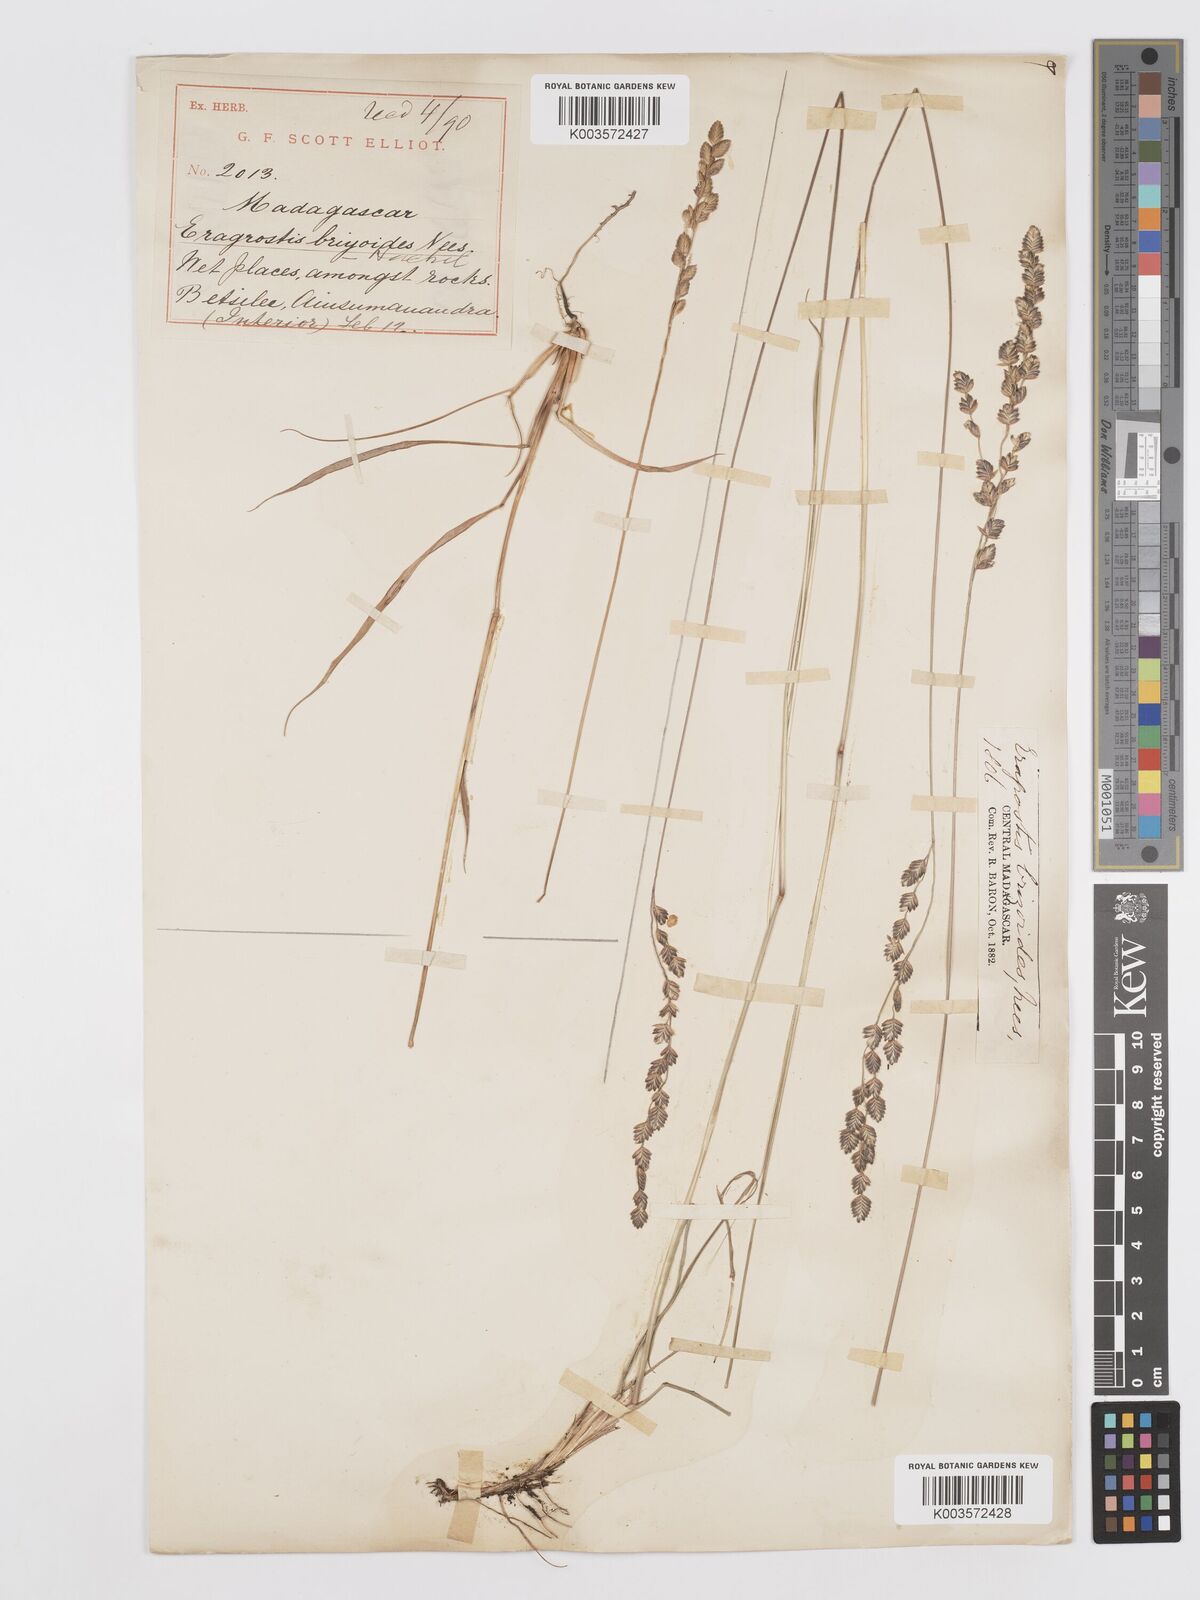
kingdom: Plantae
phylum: Tracheophyta
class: Liliopsida
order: Poales
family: Poaceae
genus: Eragrostis
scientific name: Eragrostis capensis
